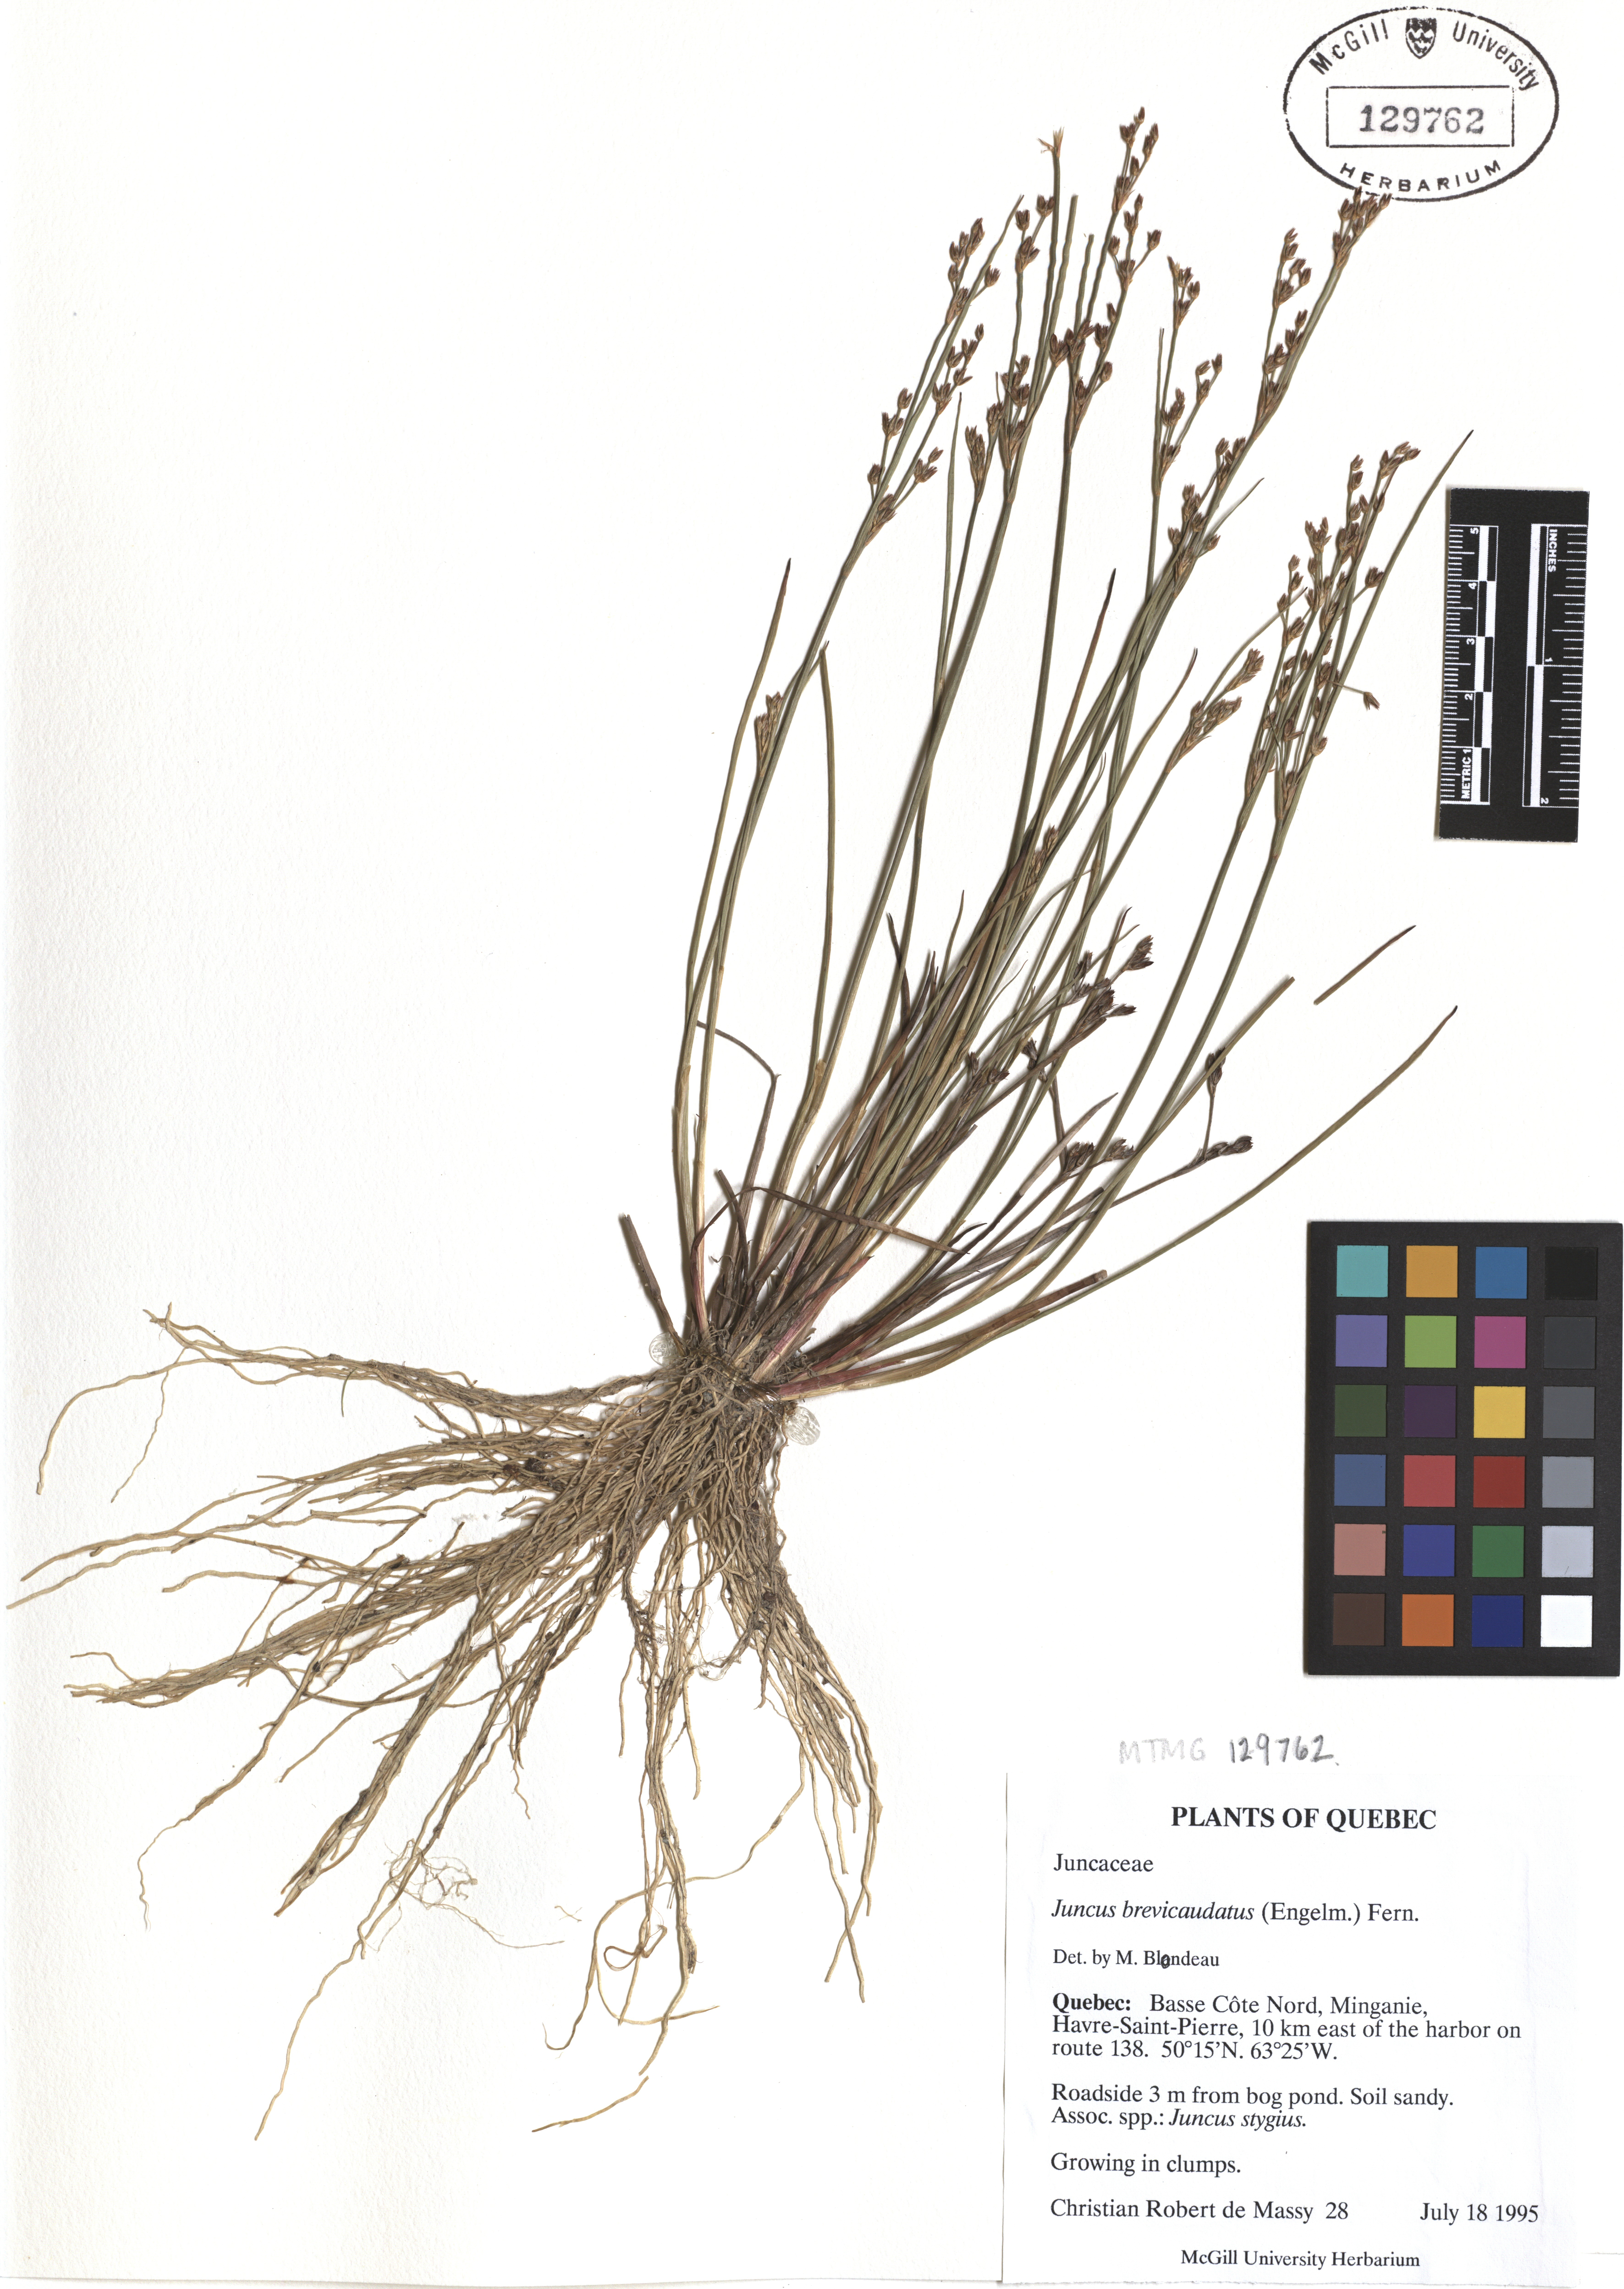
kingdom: Plantae
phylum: Tracheophyta
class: Liliopsida
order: Poales
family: Juncaceae
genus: Juncus
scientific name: Juncus brevicaudatus
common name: Narrow-panicle rush
